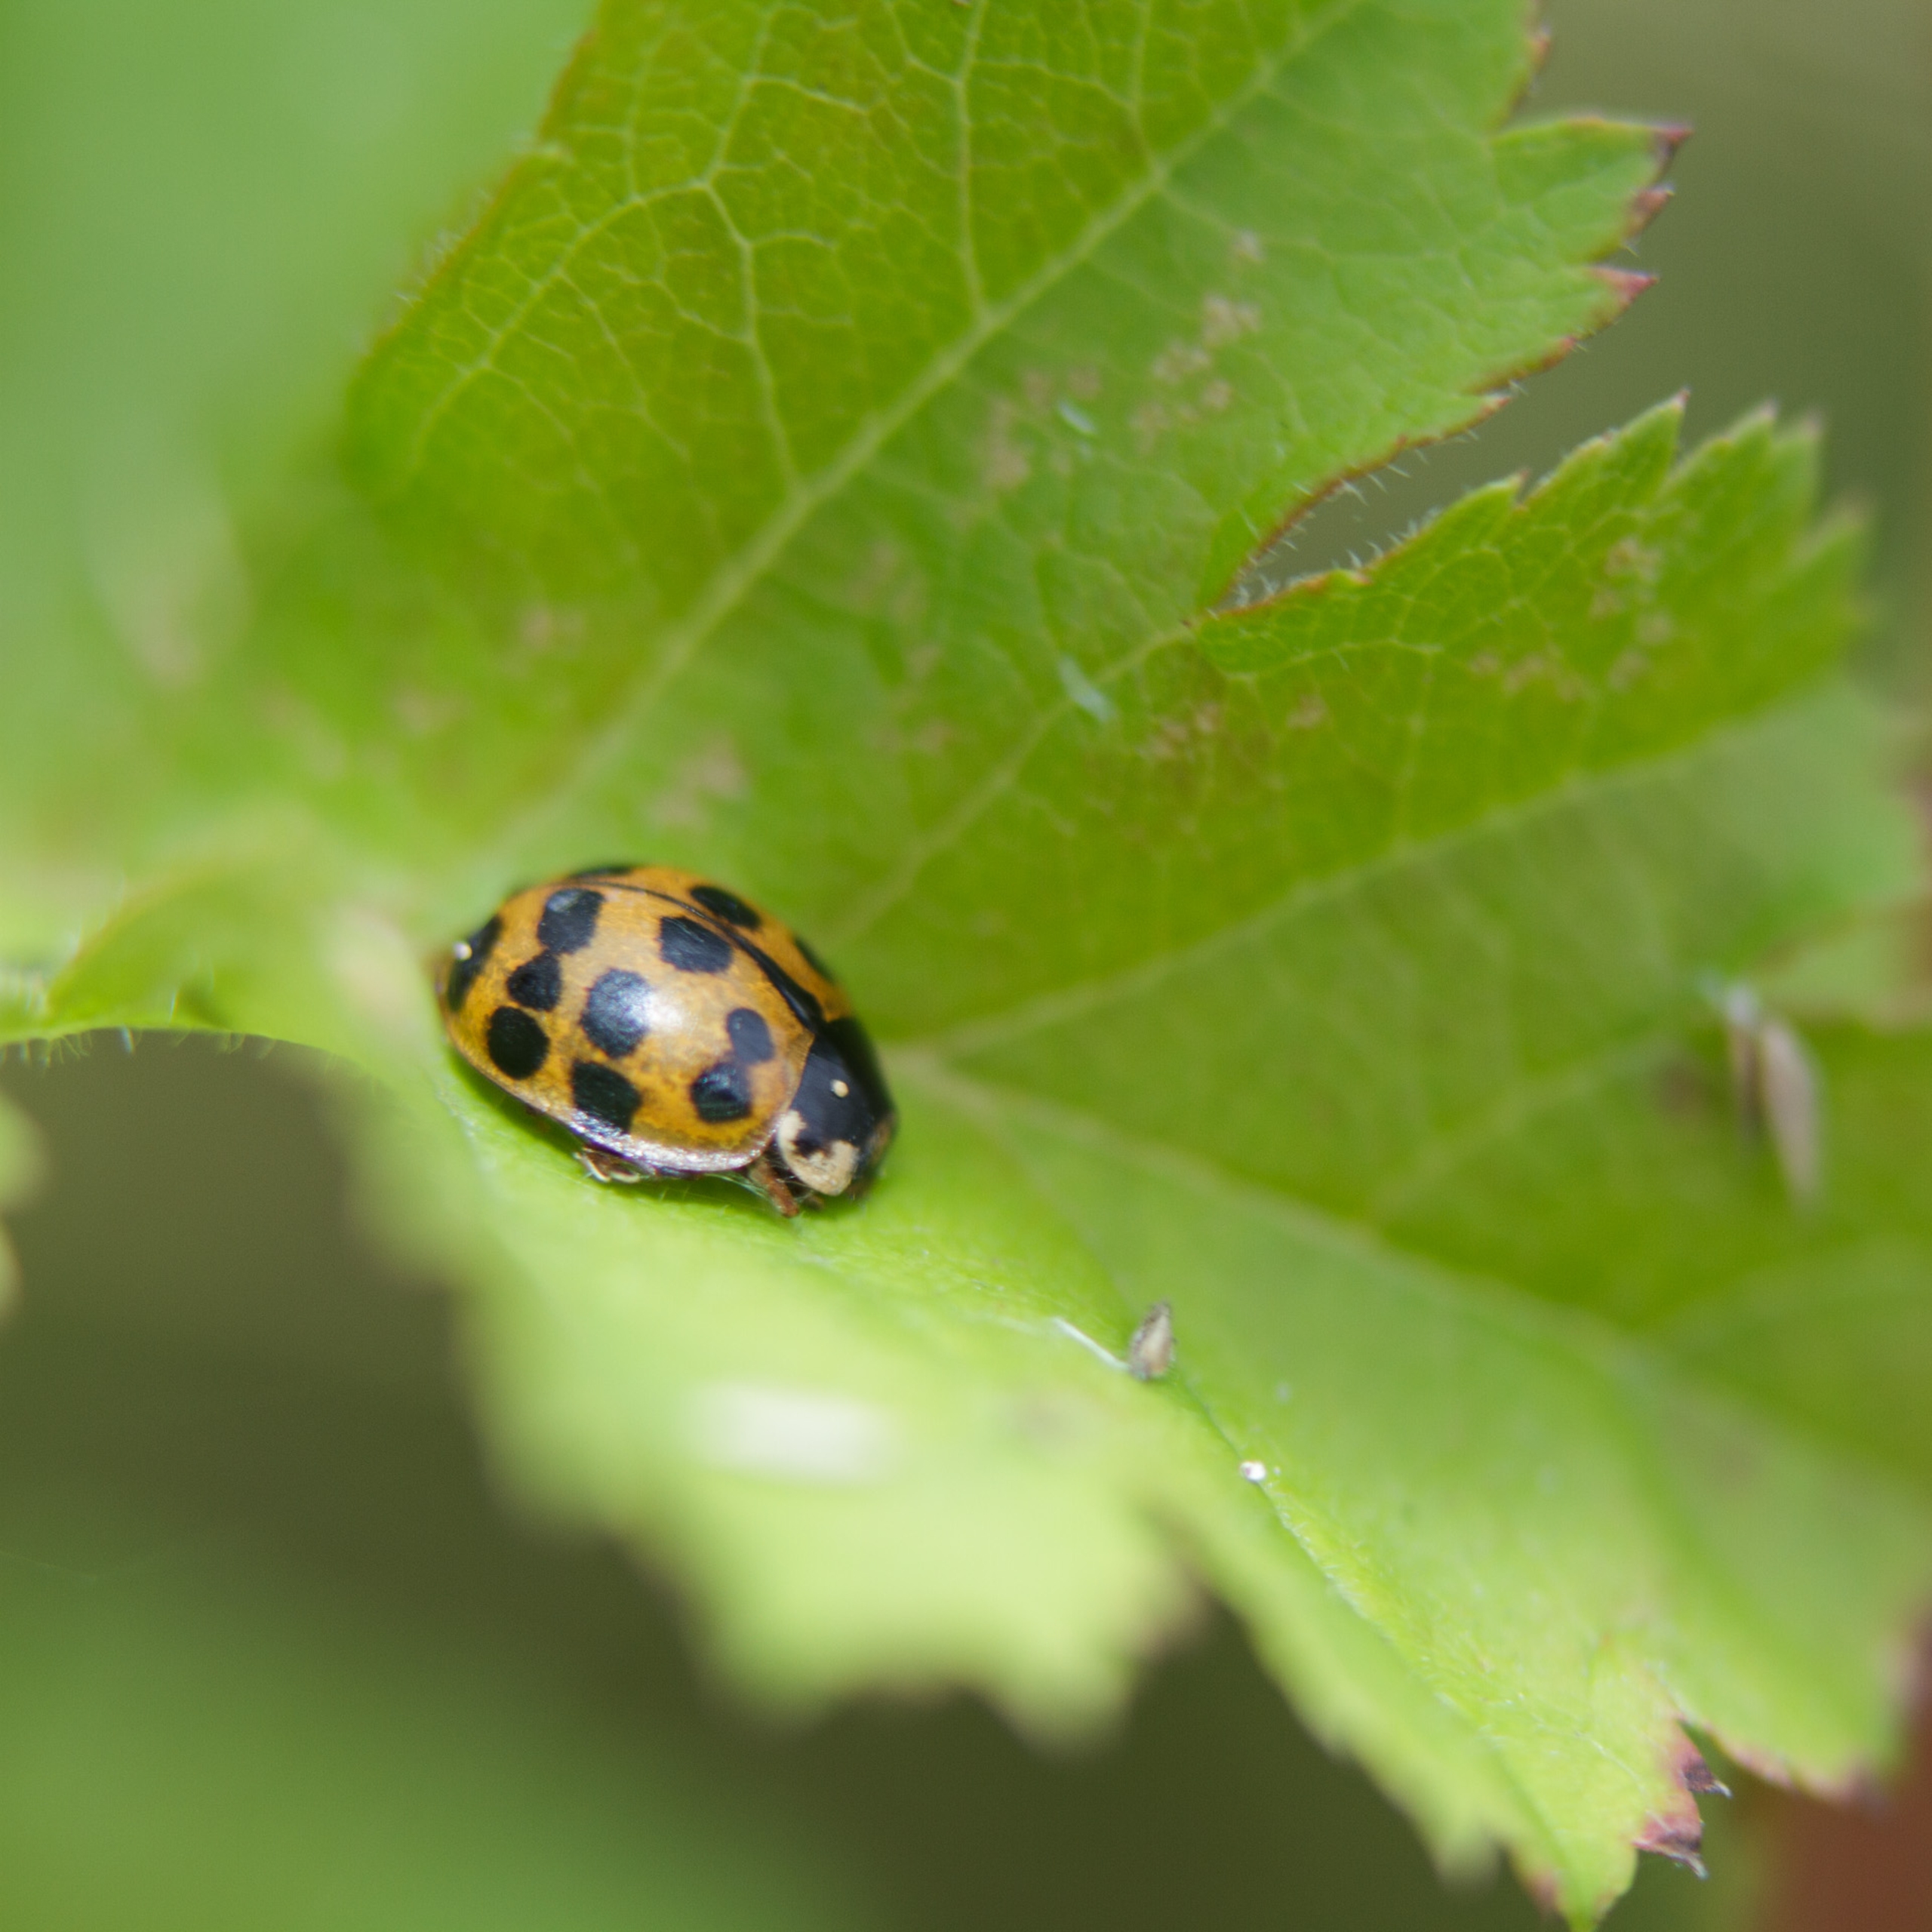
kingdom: Animalia
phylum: Arthropoda
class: Insecta
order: Coleoptera
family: Coccinellidae
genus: Harmonia
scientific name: Harmonia axyridis
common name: Harlekinmariehøne
